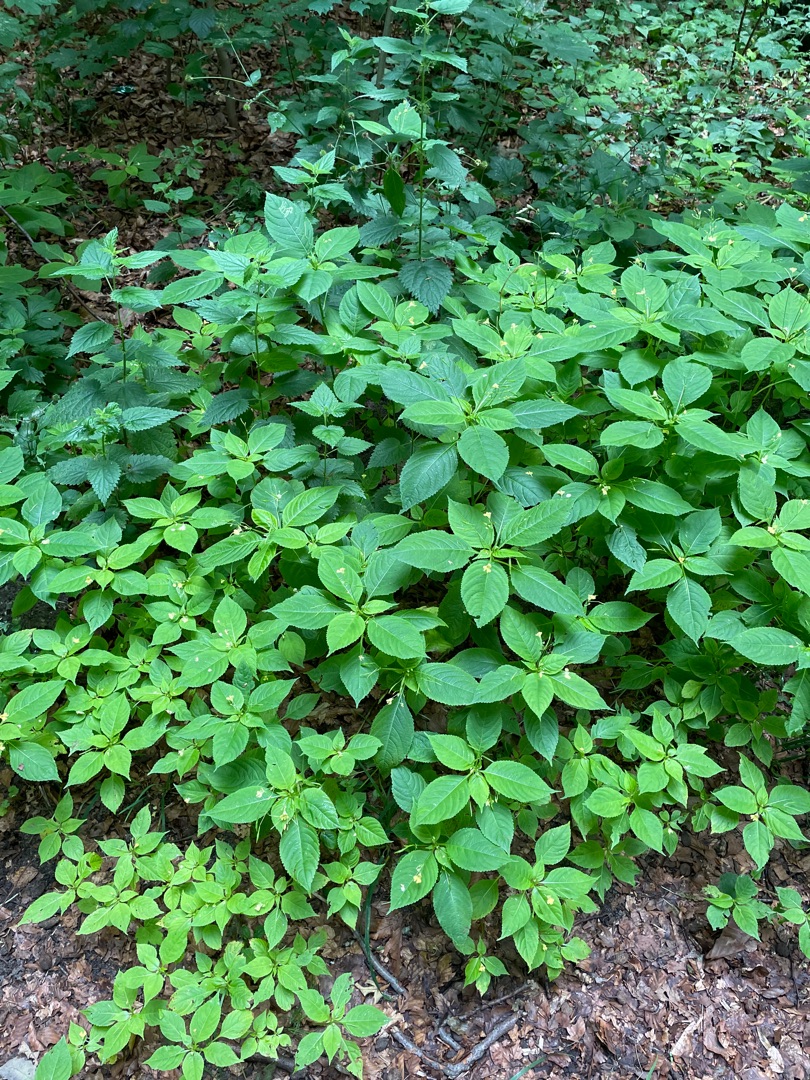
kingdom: Plantae
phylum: Tracheophyta
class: Magnoliopsida
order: Ericales
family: Balsaminaceae
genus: Impatiens
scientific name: Impatiens parviflora
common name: Småblomstret balsamin
